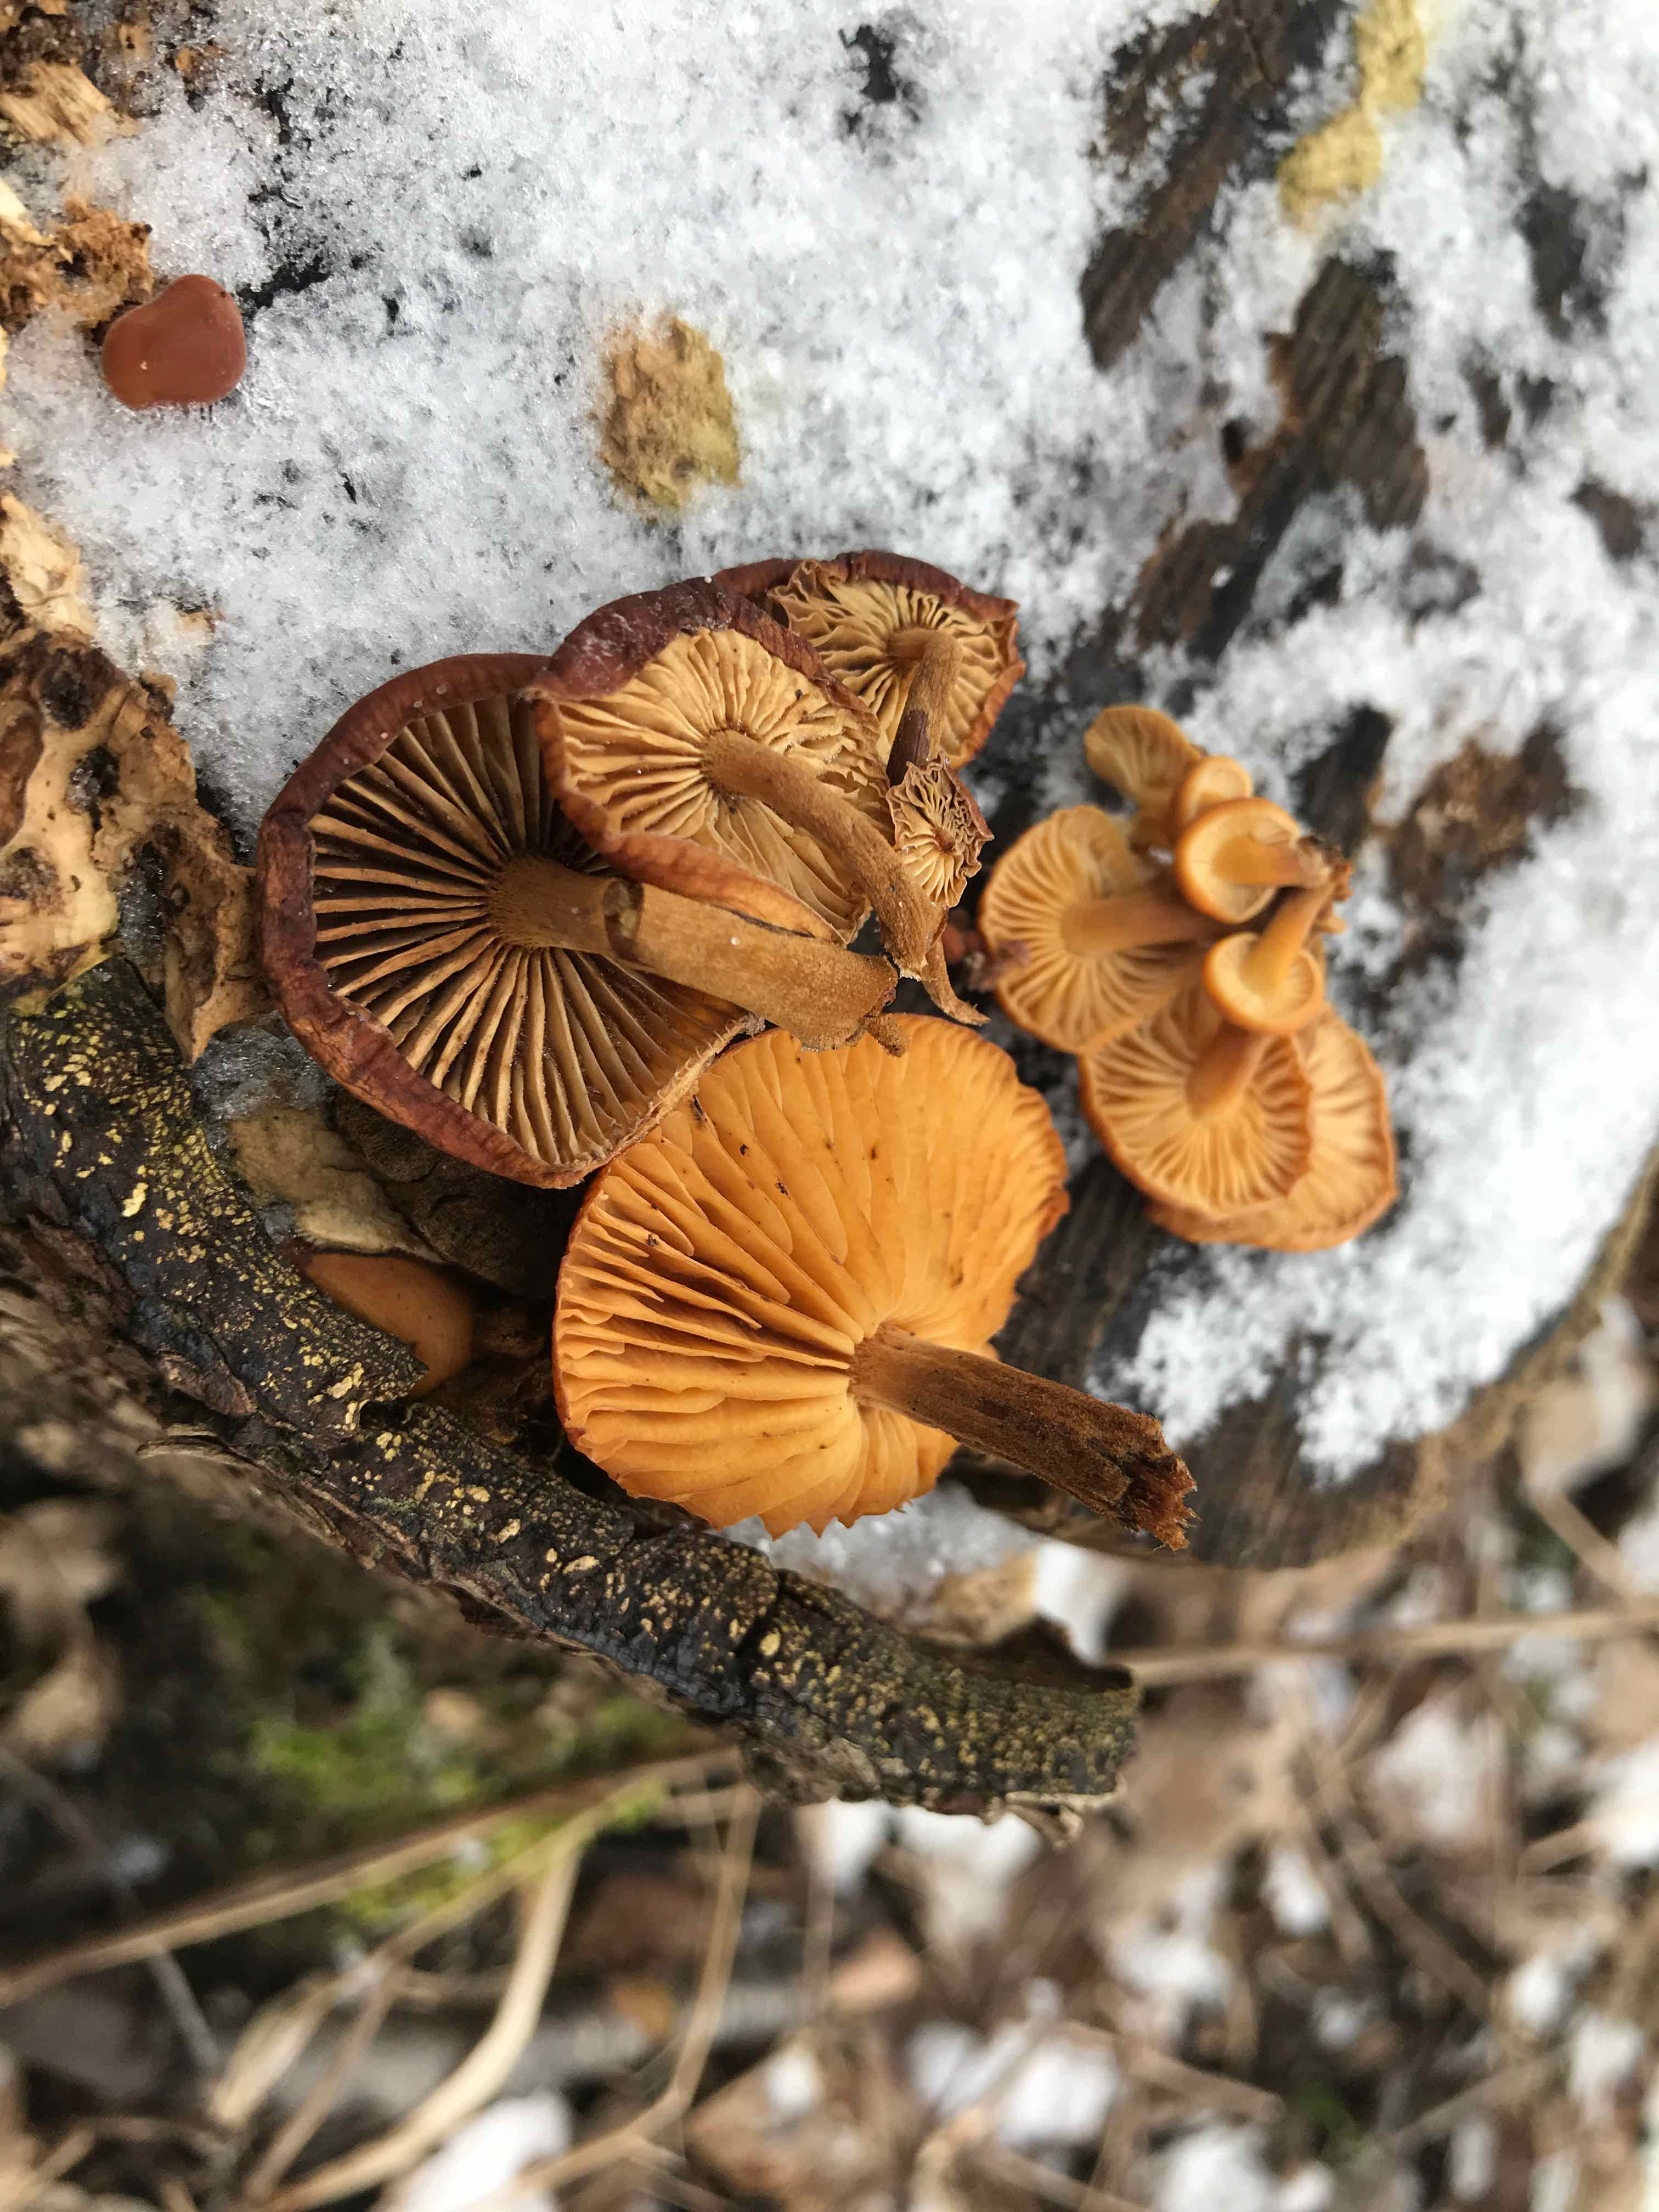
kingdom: Fungi
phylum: Basidiomycota
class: Agaricomycetes
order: Agaricales
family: Physalacriaceae
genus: Flammulina
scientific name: Flammulina velutipes
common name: gul fløjlsfod
